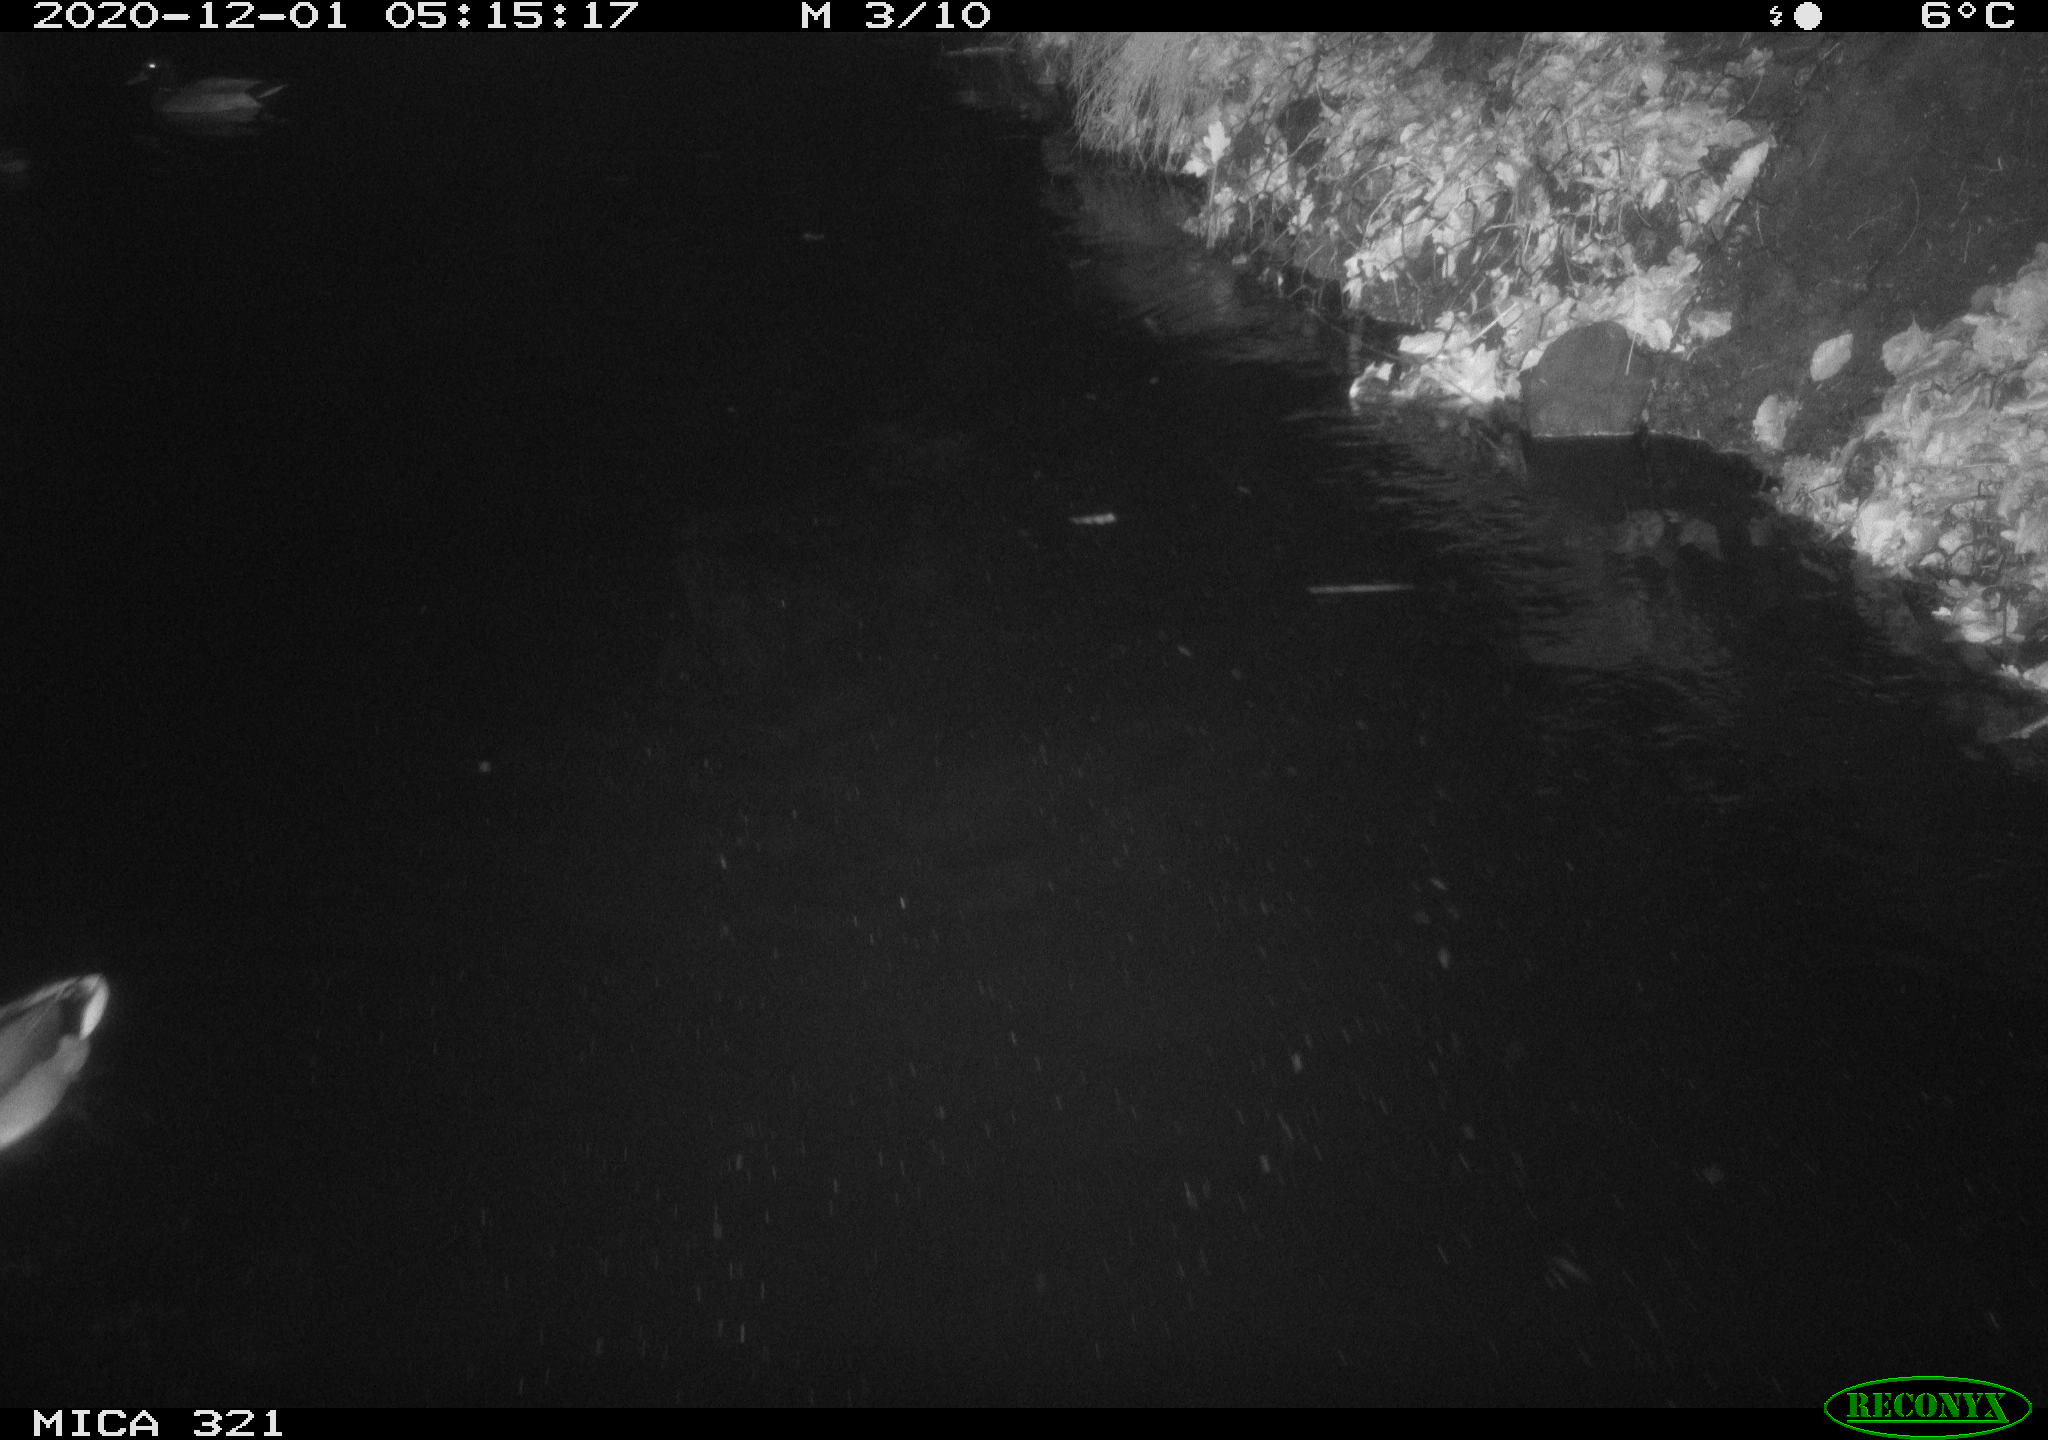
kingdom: Animalia
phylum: Chordata
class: Aves
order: Anseriformes
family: Anatidae
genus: Anas
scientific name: Anas platyrhynchos
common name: Mallard
